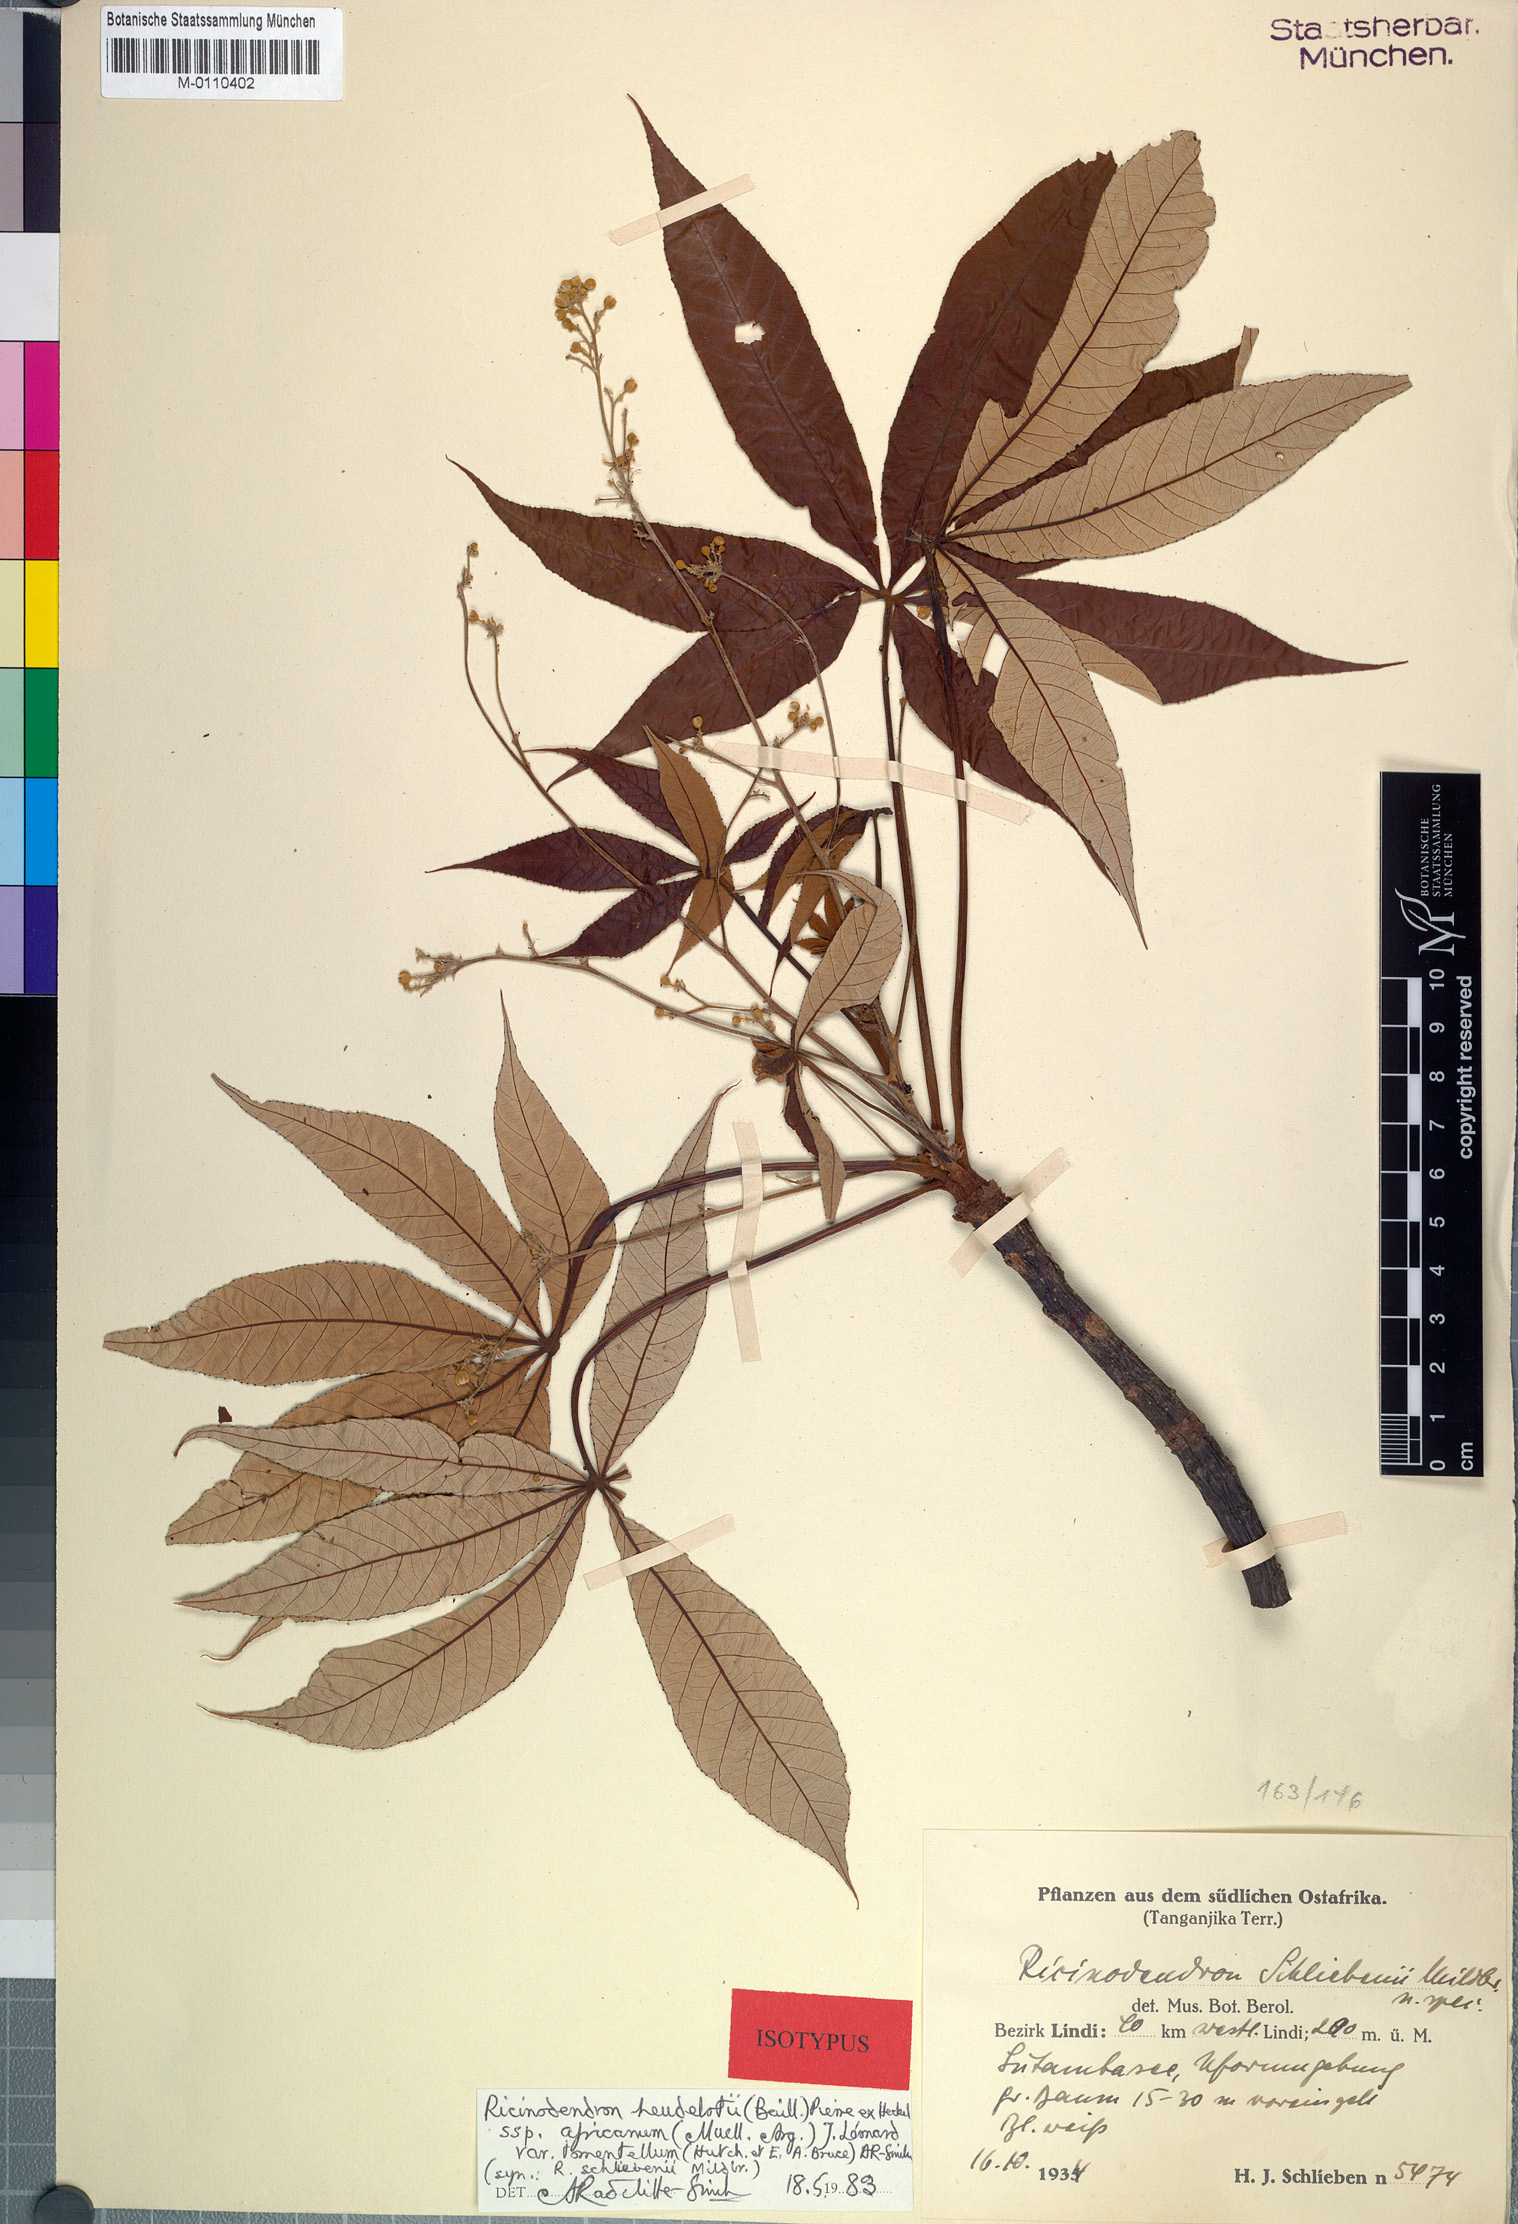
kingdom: Plantae
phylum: Tracheophyta
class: Magnoliopsida
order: Malpighiales
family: Euphorbiaceae
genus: Ricinodendron
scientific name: Ricinodendron heudelotii
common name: African nut-tree
